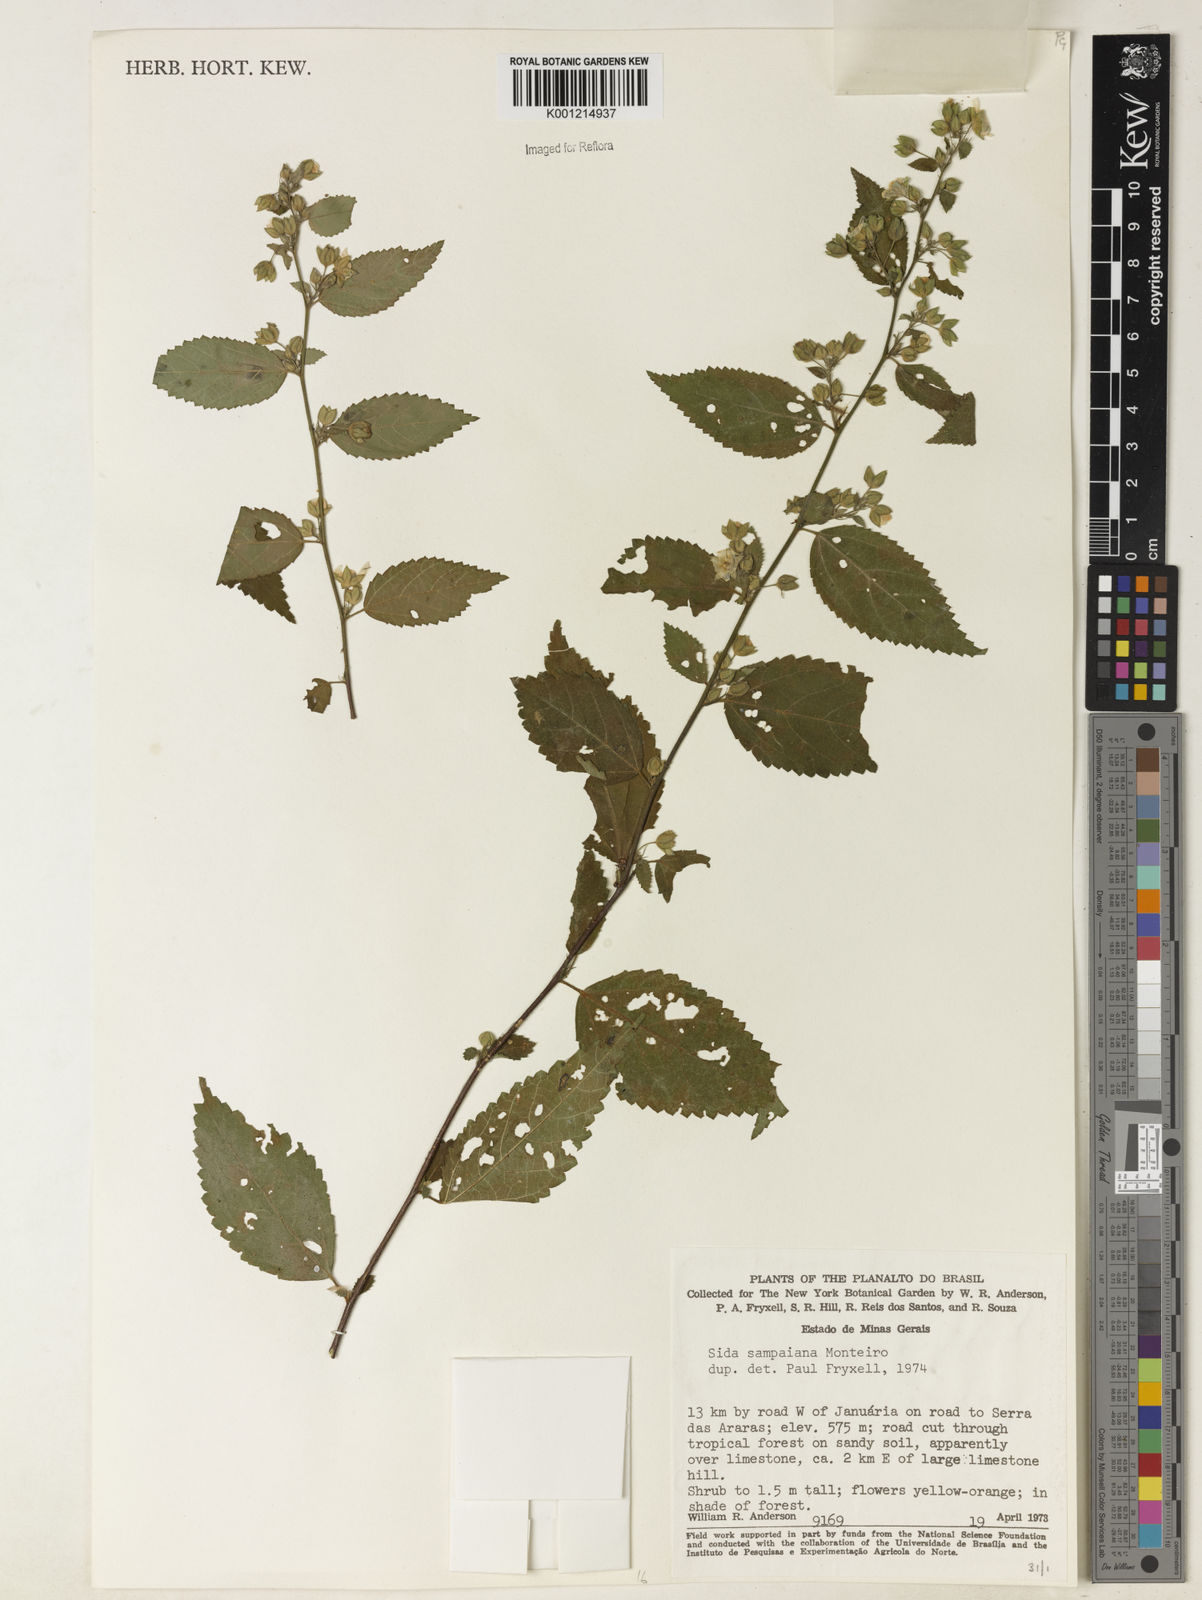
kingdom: Plantae
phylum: Tracheophyta
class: Magnoliopsida
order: Malvales
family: Malvaceae
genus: Sida
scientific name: Sida sampaiana
